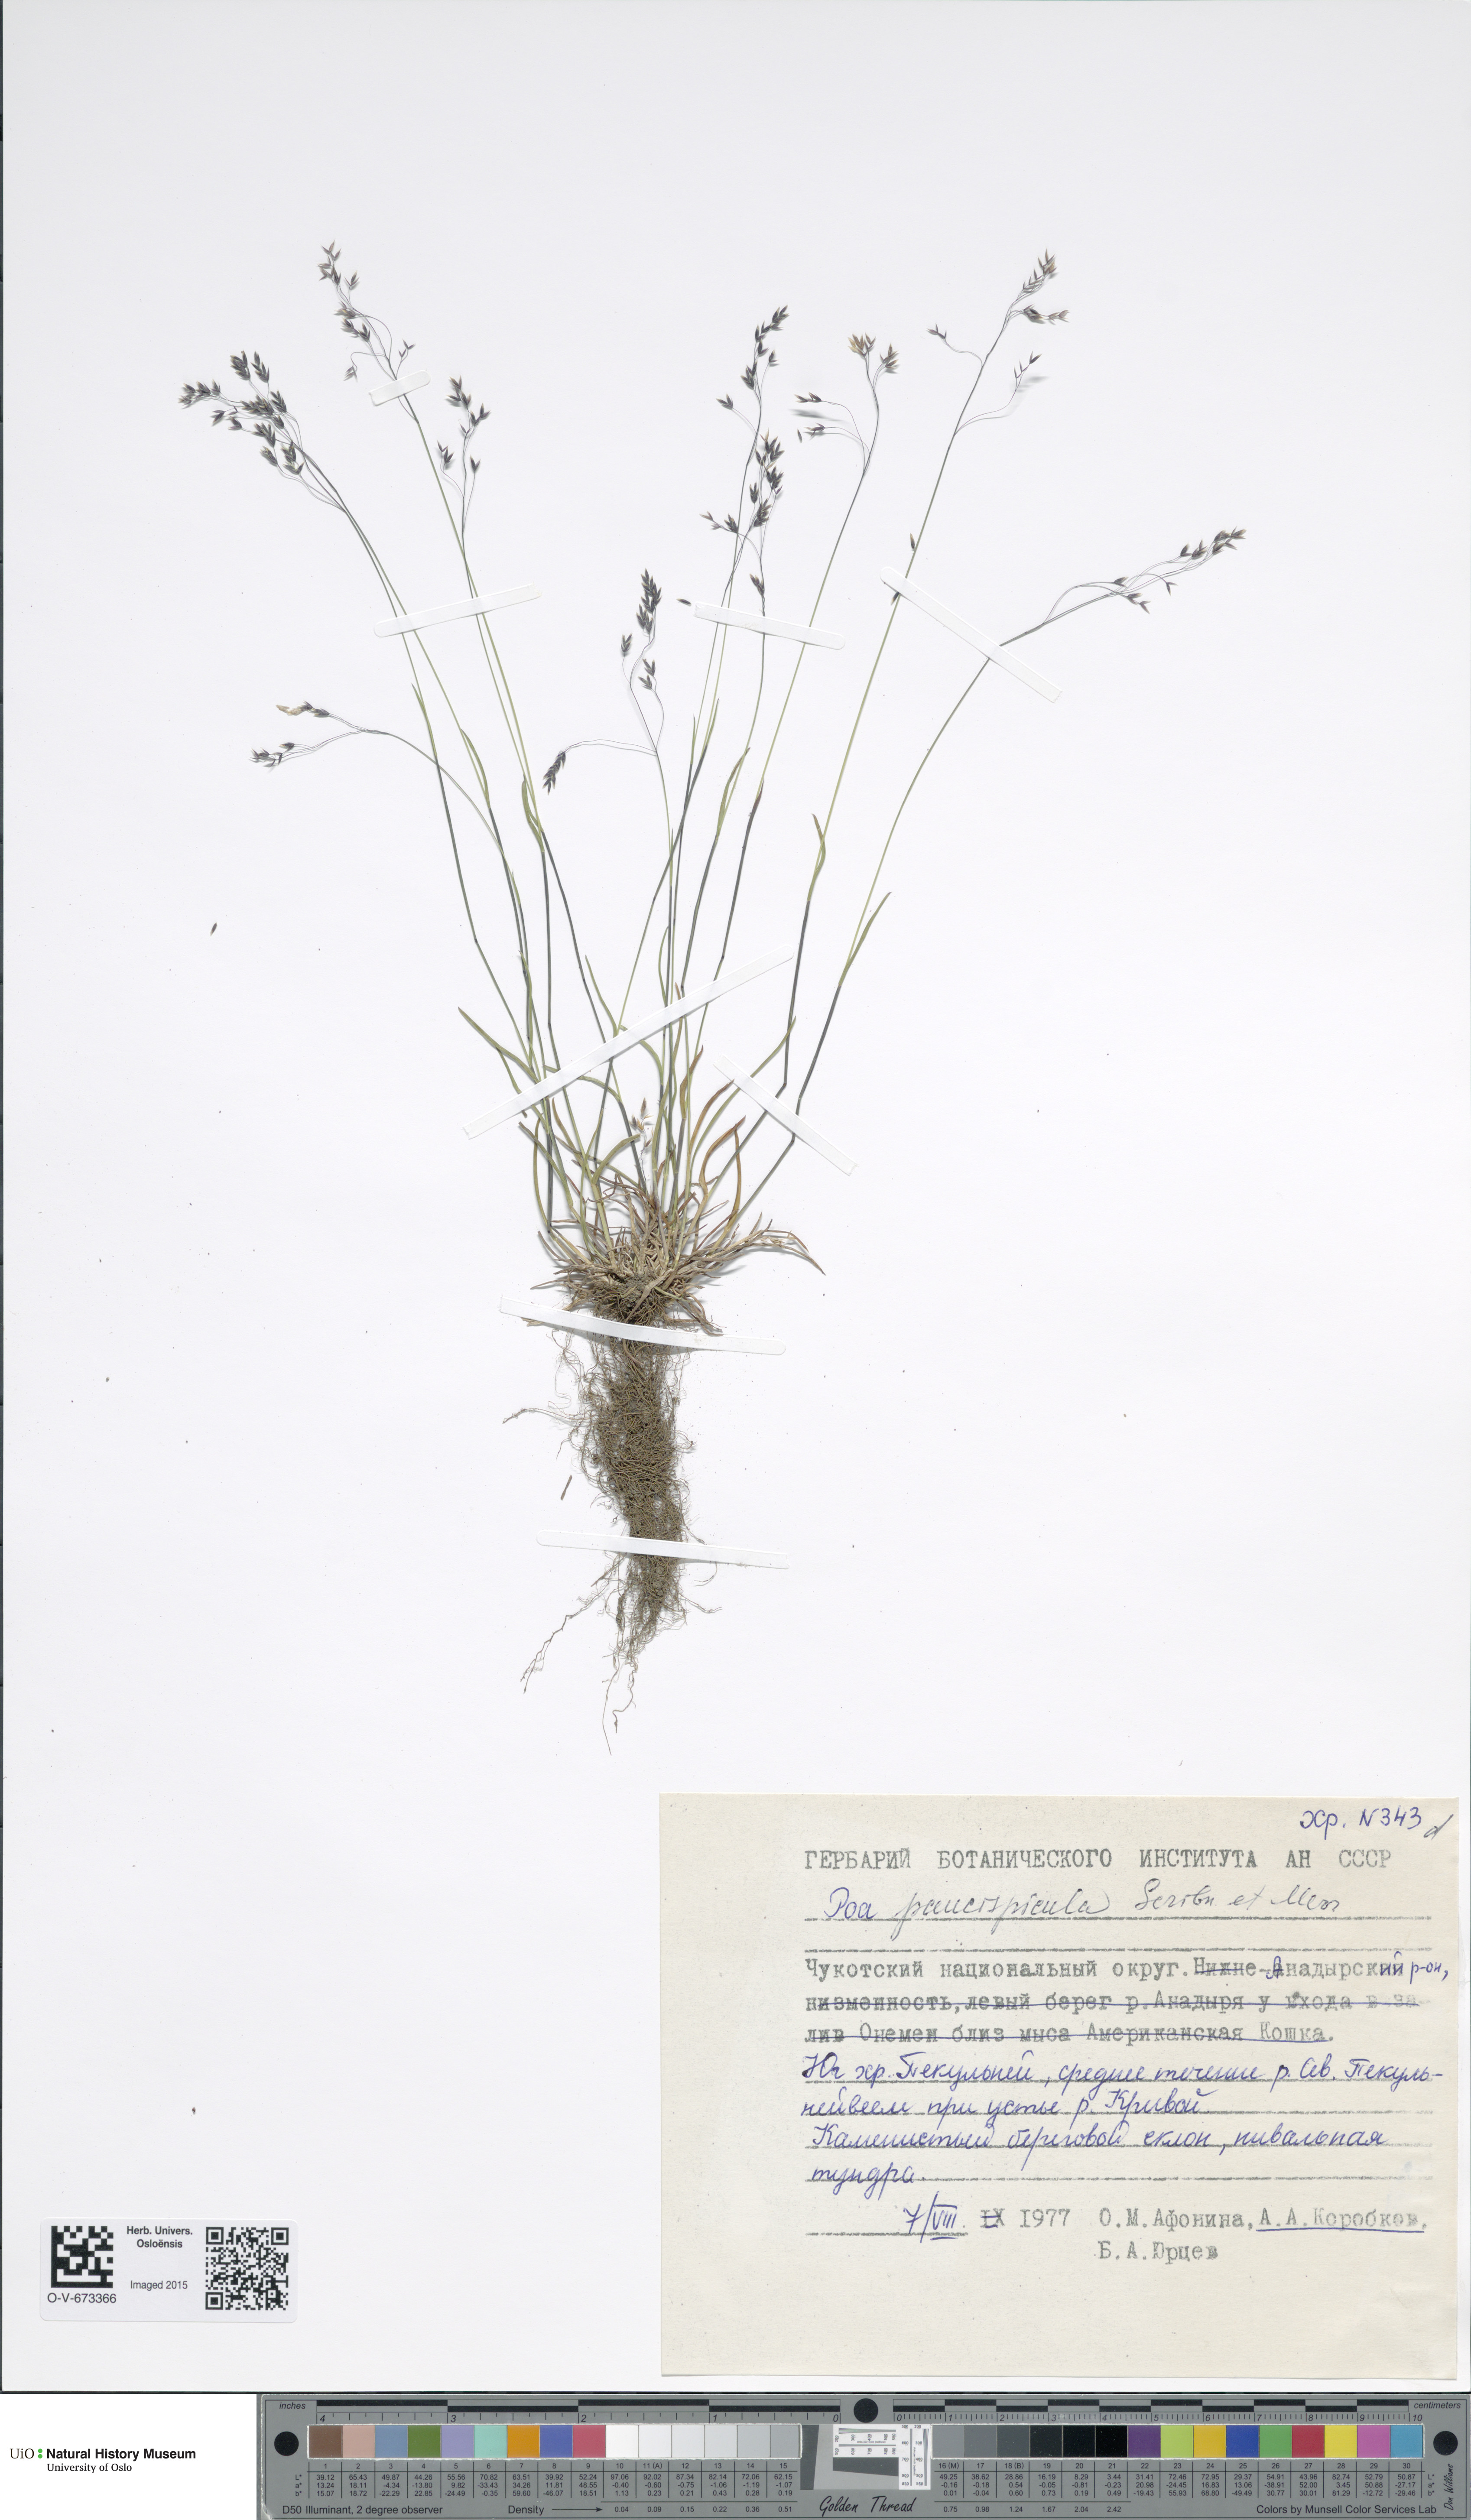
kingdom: Plantae
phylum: Tracheophyta
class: Liliopsida
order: Poales
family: Poaceae
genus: Poa
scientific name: Poa paucispicula
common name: Alaska bluegrass
